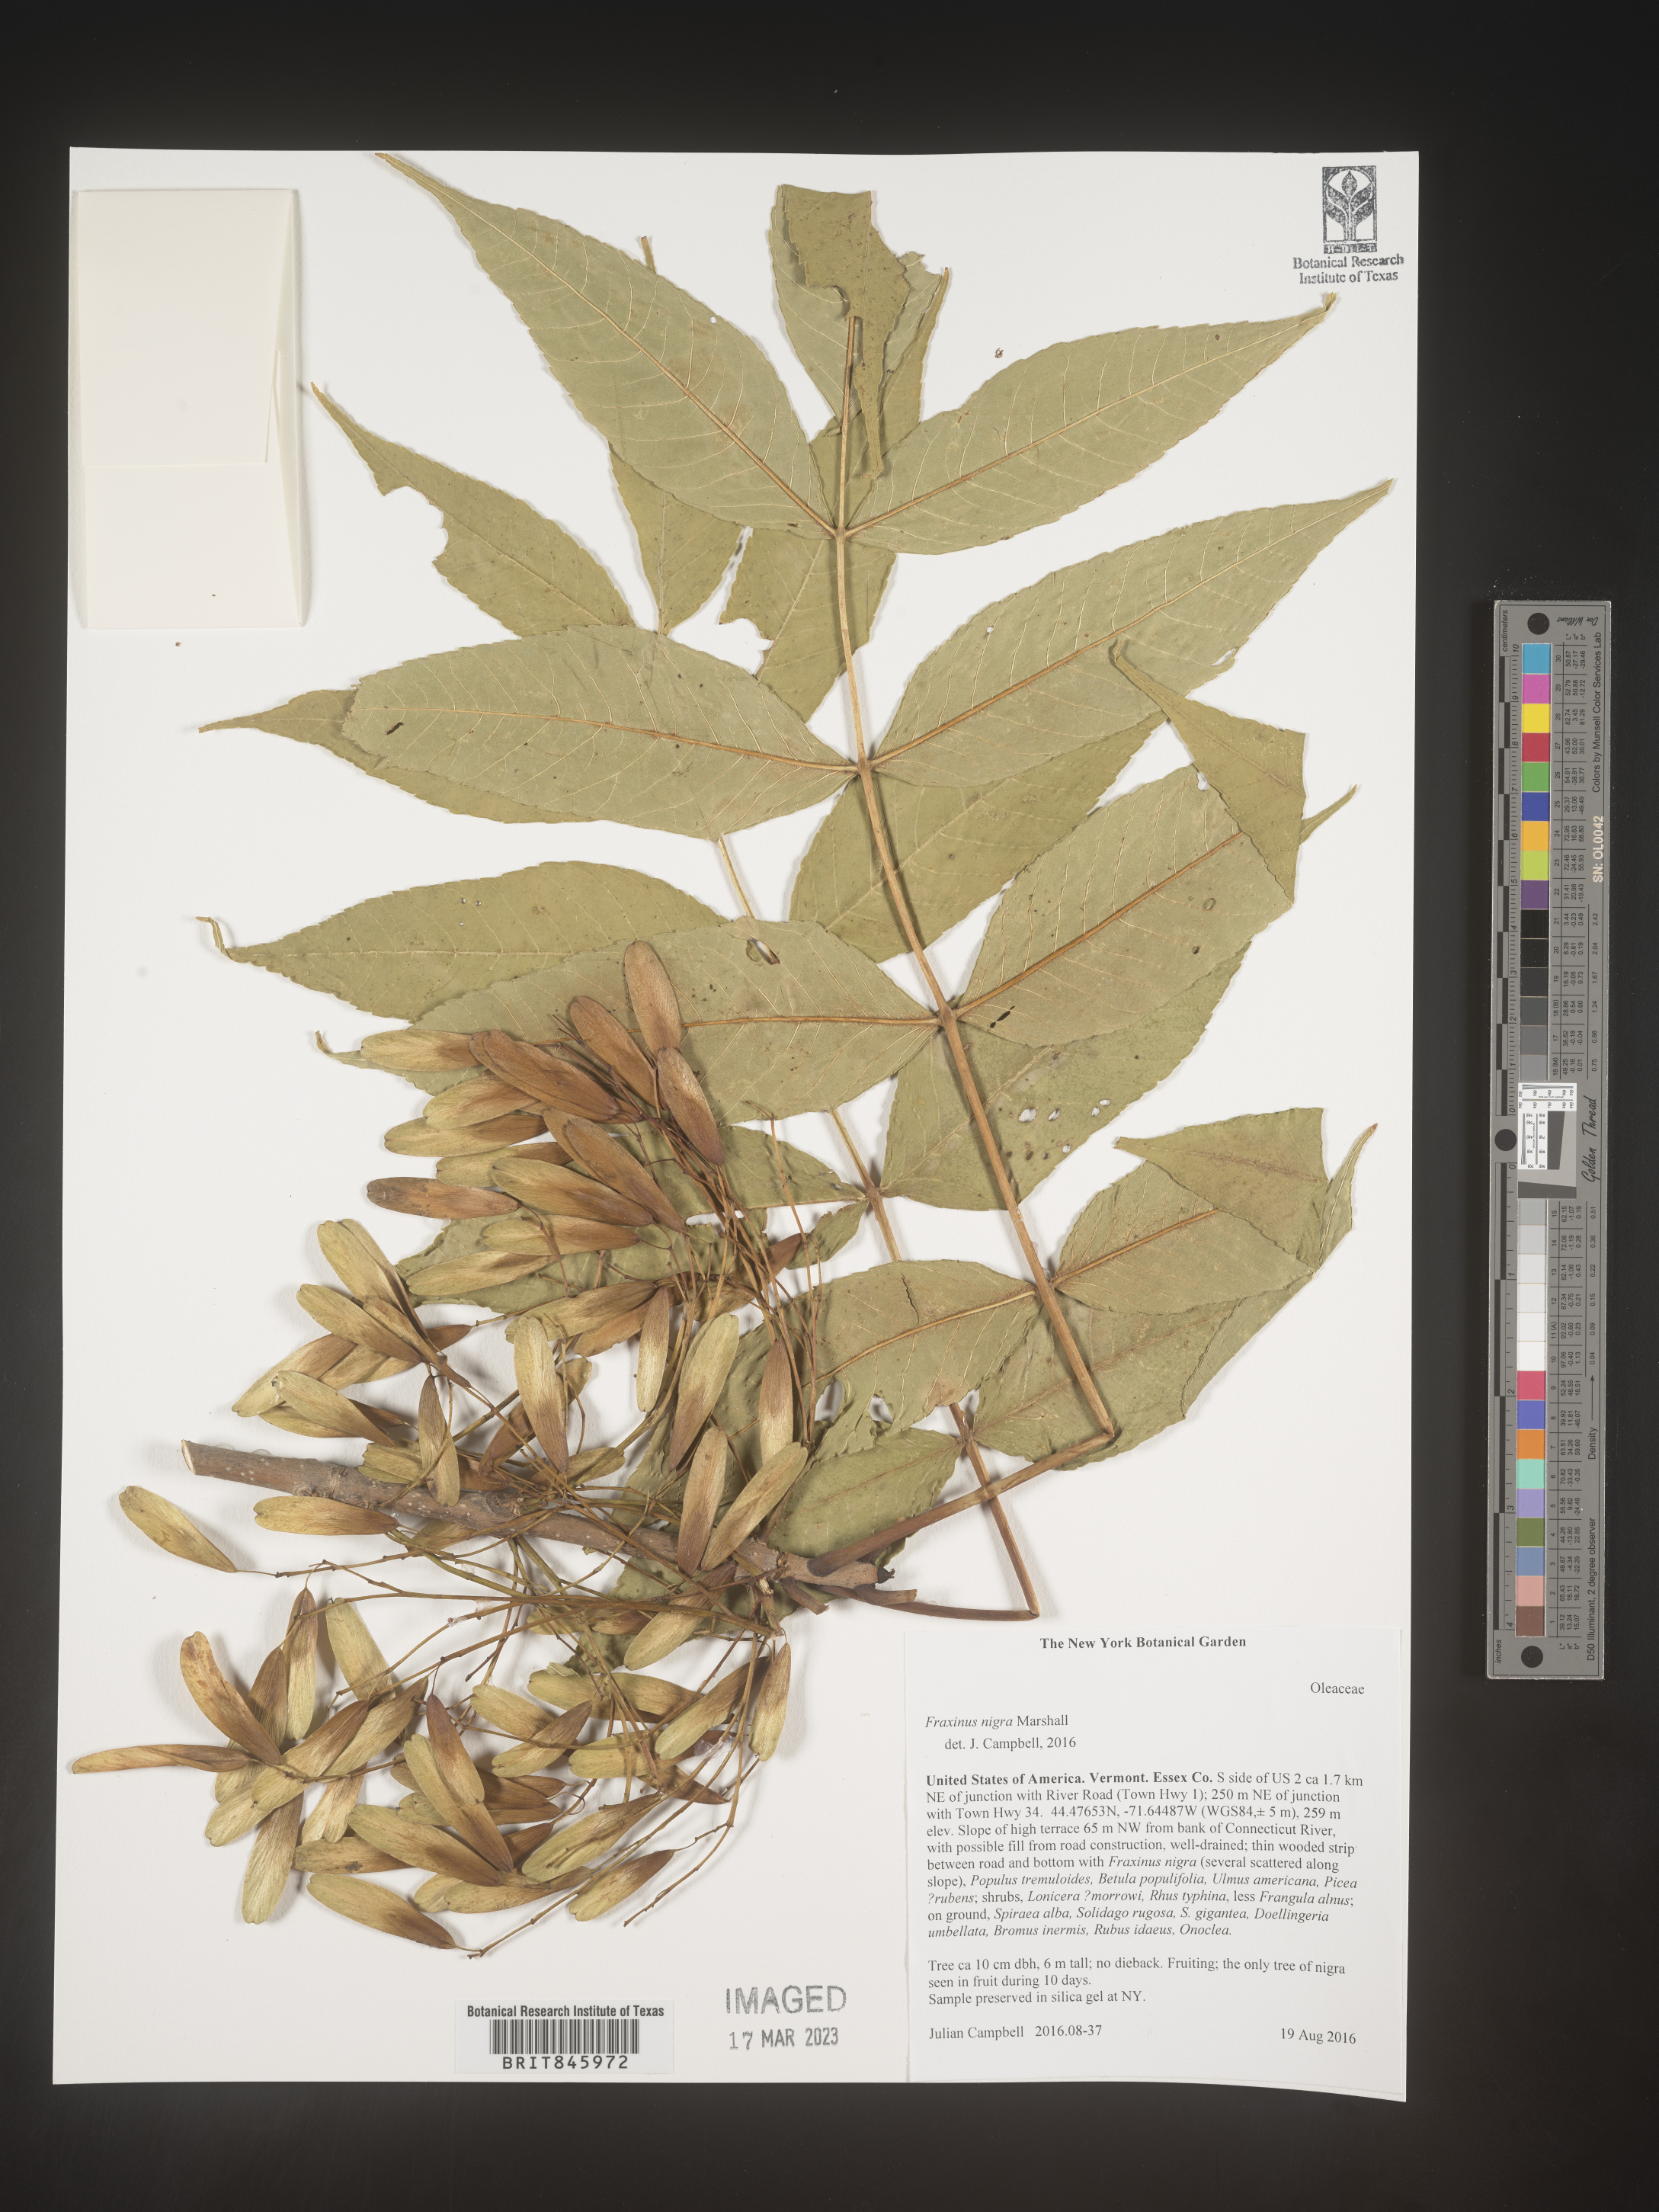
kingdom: Plantae
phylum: Tracheophyta
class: Magnoliopsida
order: Lamiales
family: Oleaceae
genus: Fraxinus
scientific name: Fraxinus nigra
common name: Black ash
